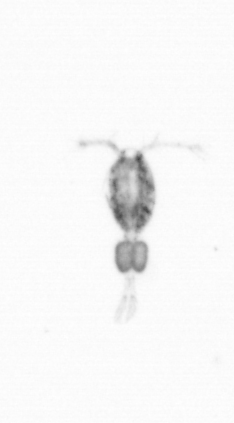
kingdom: Animalia
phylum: Arthropoda
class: Copepoda
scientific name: Copepoda
